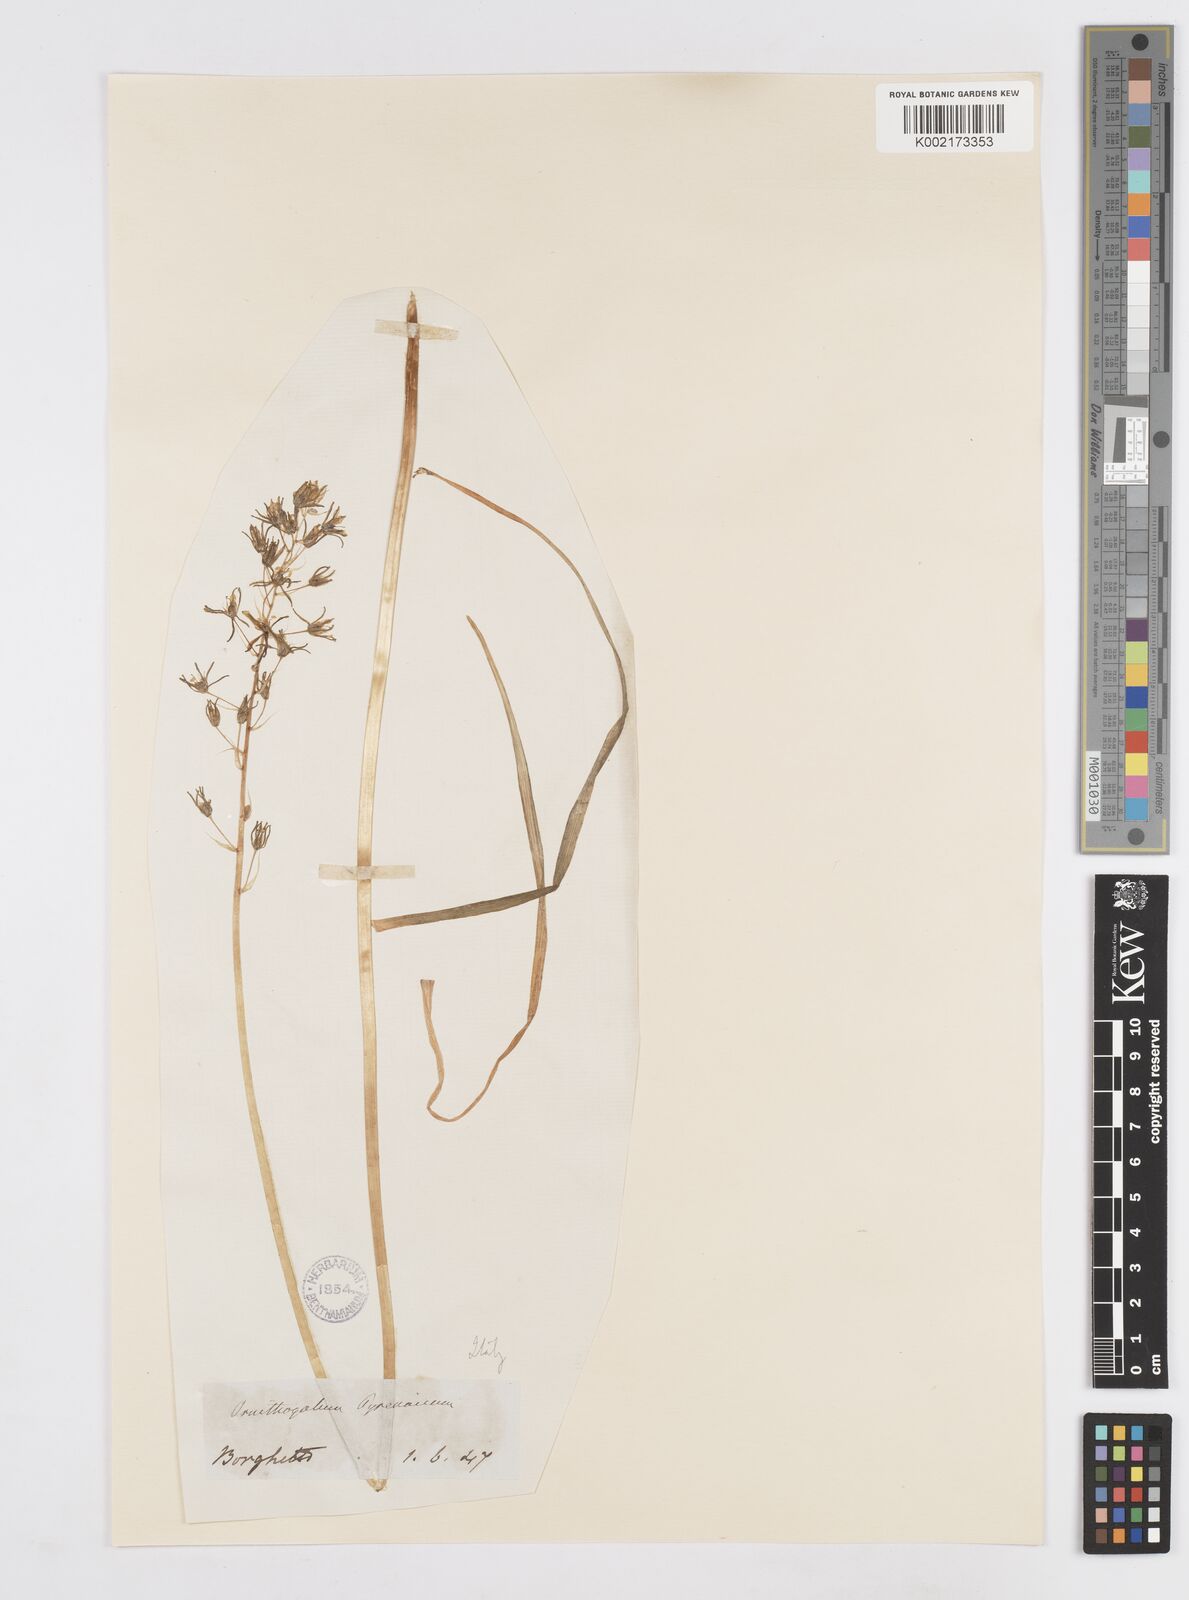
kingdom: Plantae
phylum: Tracheophyta
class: Liliopsida
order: Asparagales
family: Asparagaceae
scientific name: Asparagaceae
